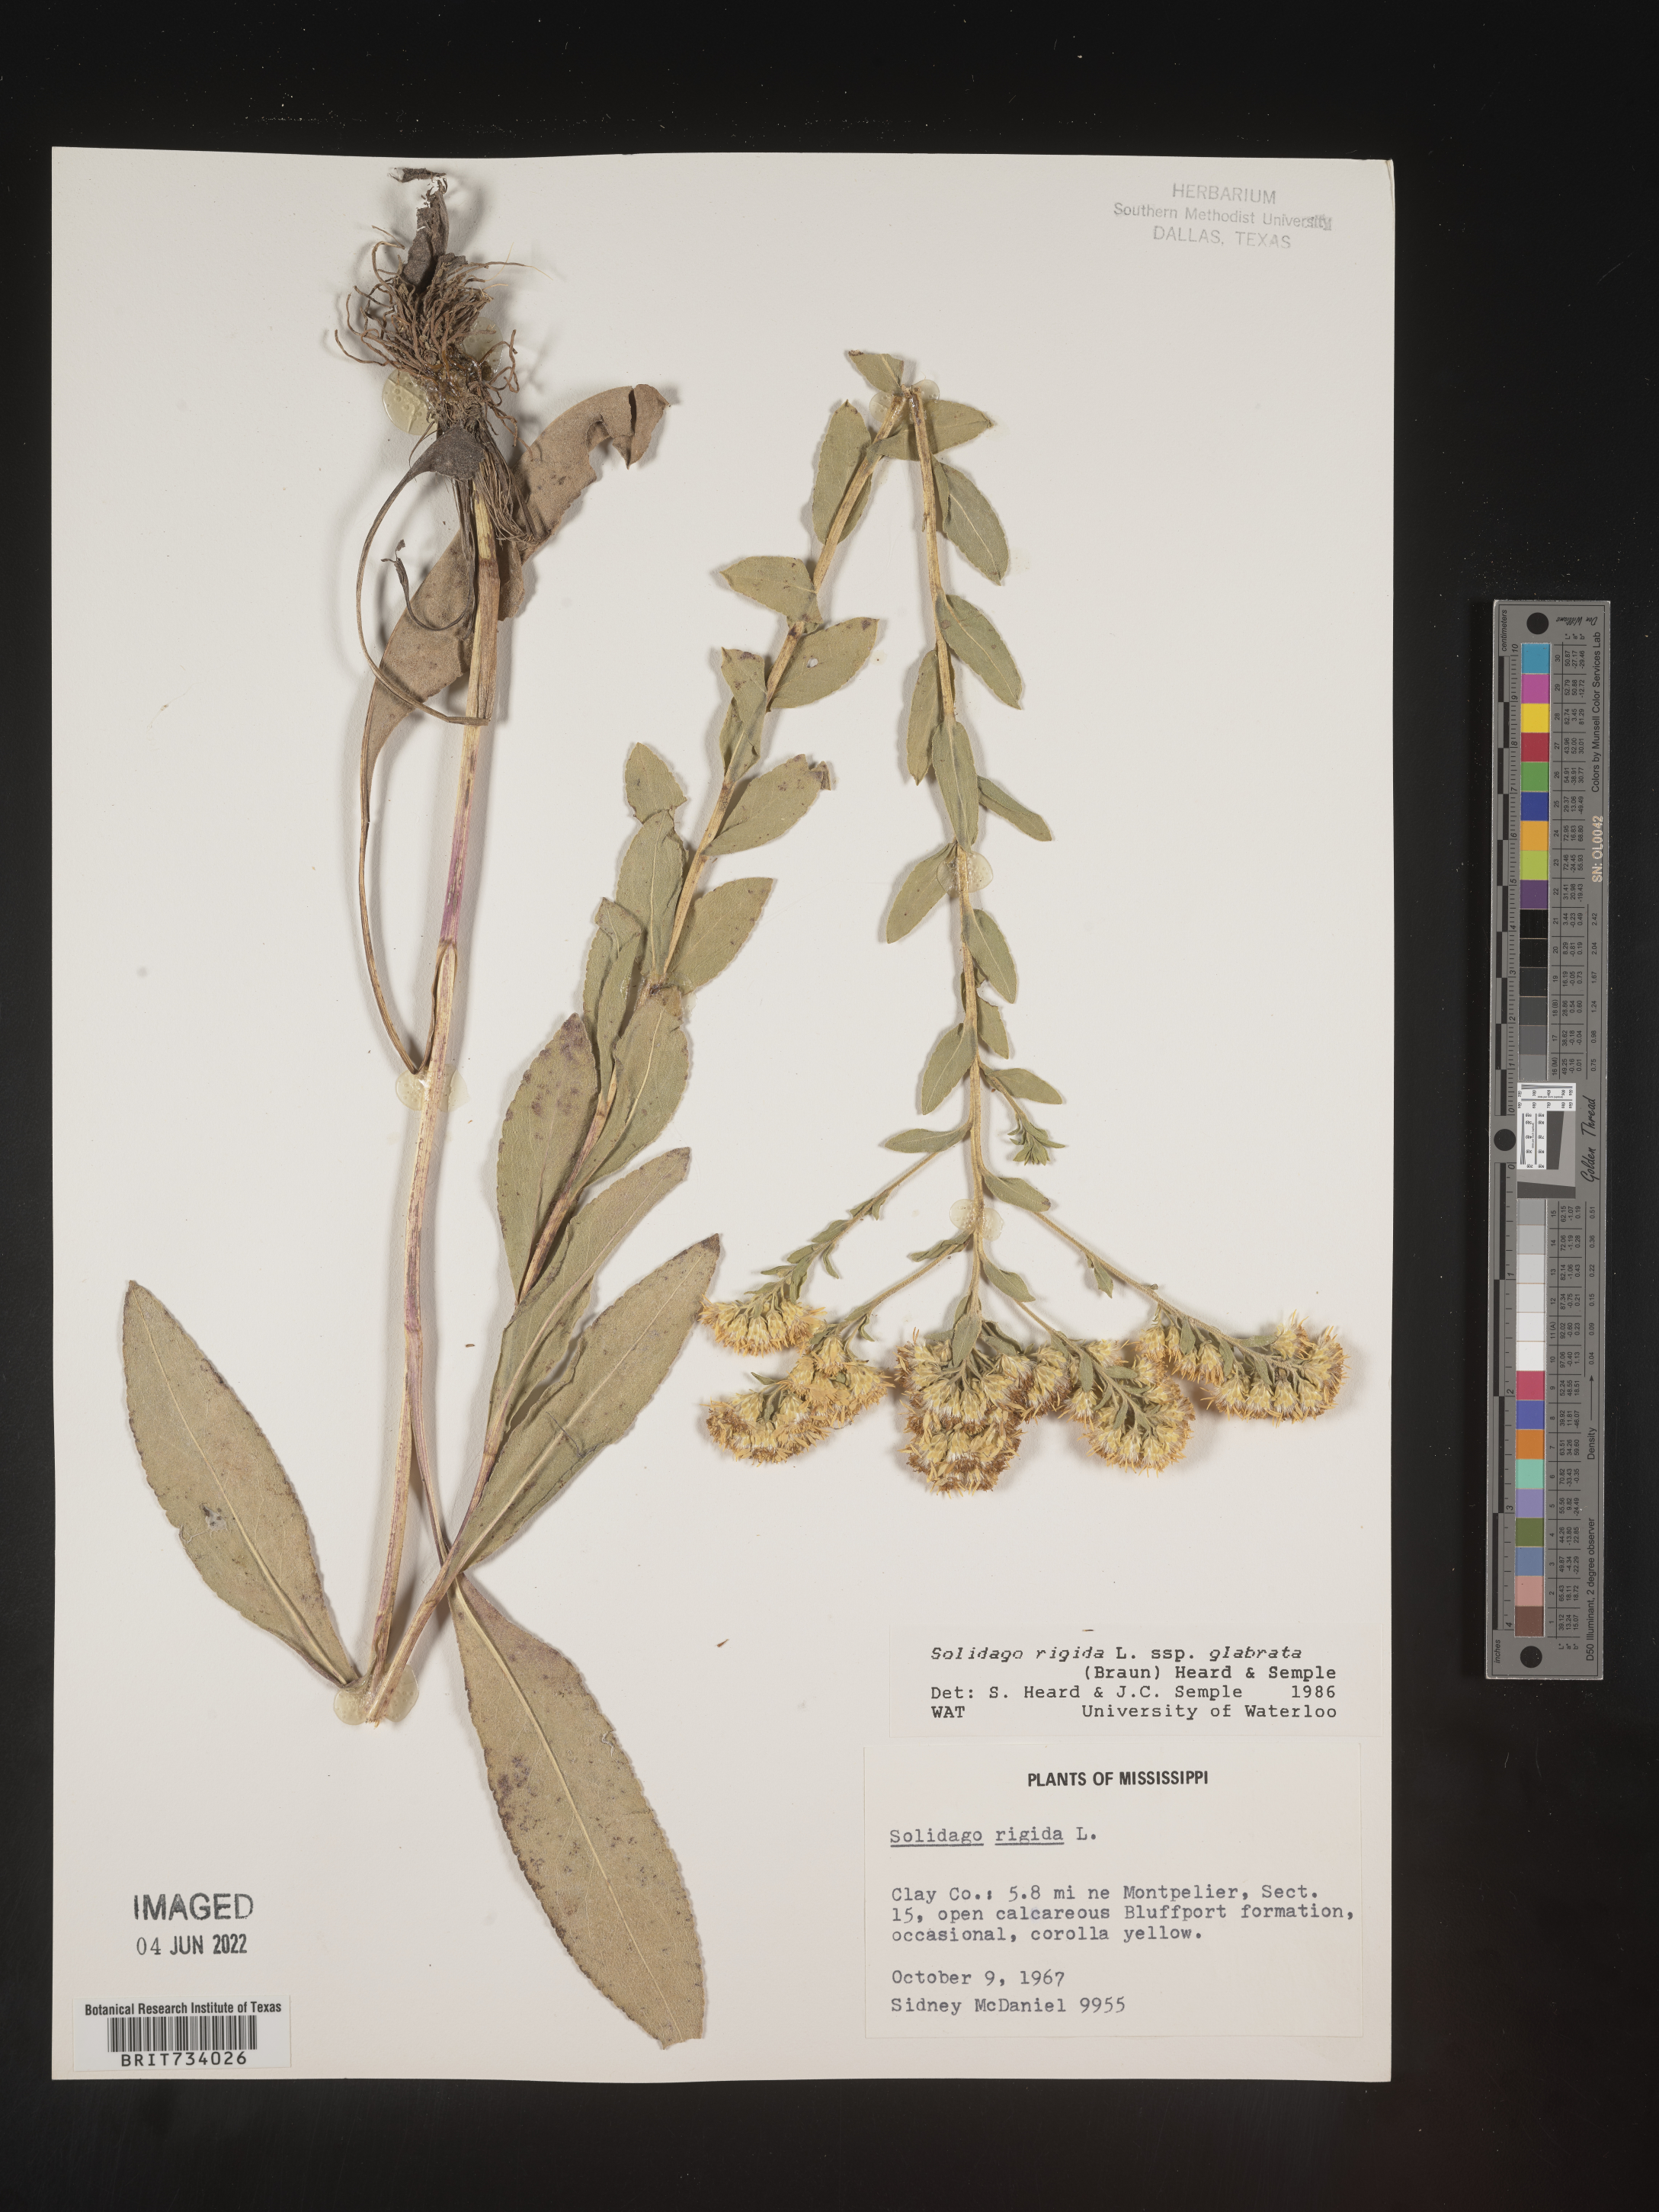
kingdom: Plantae
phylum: Tracheophyta
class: Magnoliopsida
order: Asterales
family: Asteraceae
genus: Solidago
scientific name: Solidago rigida
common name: Rigid goldenrod
